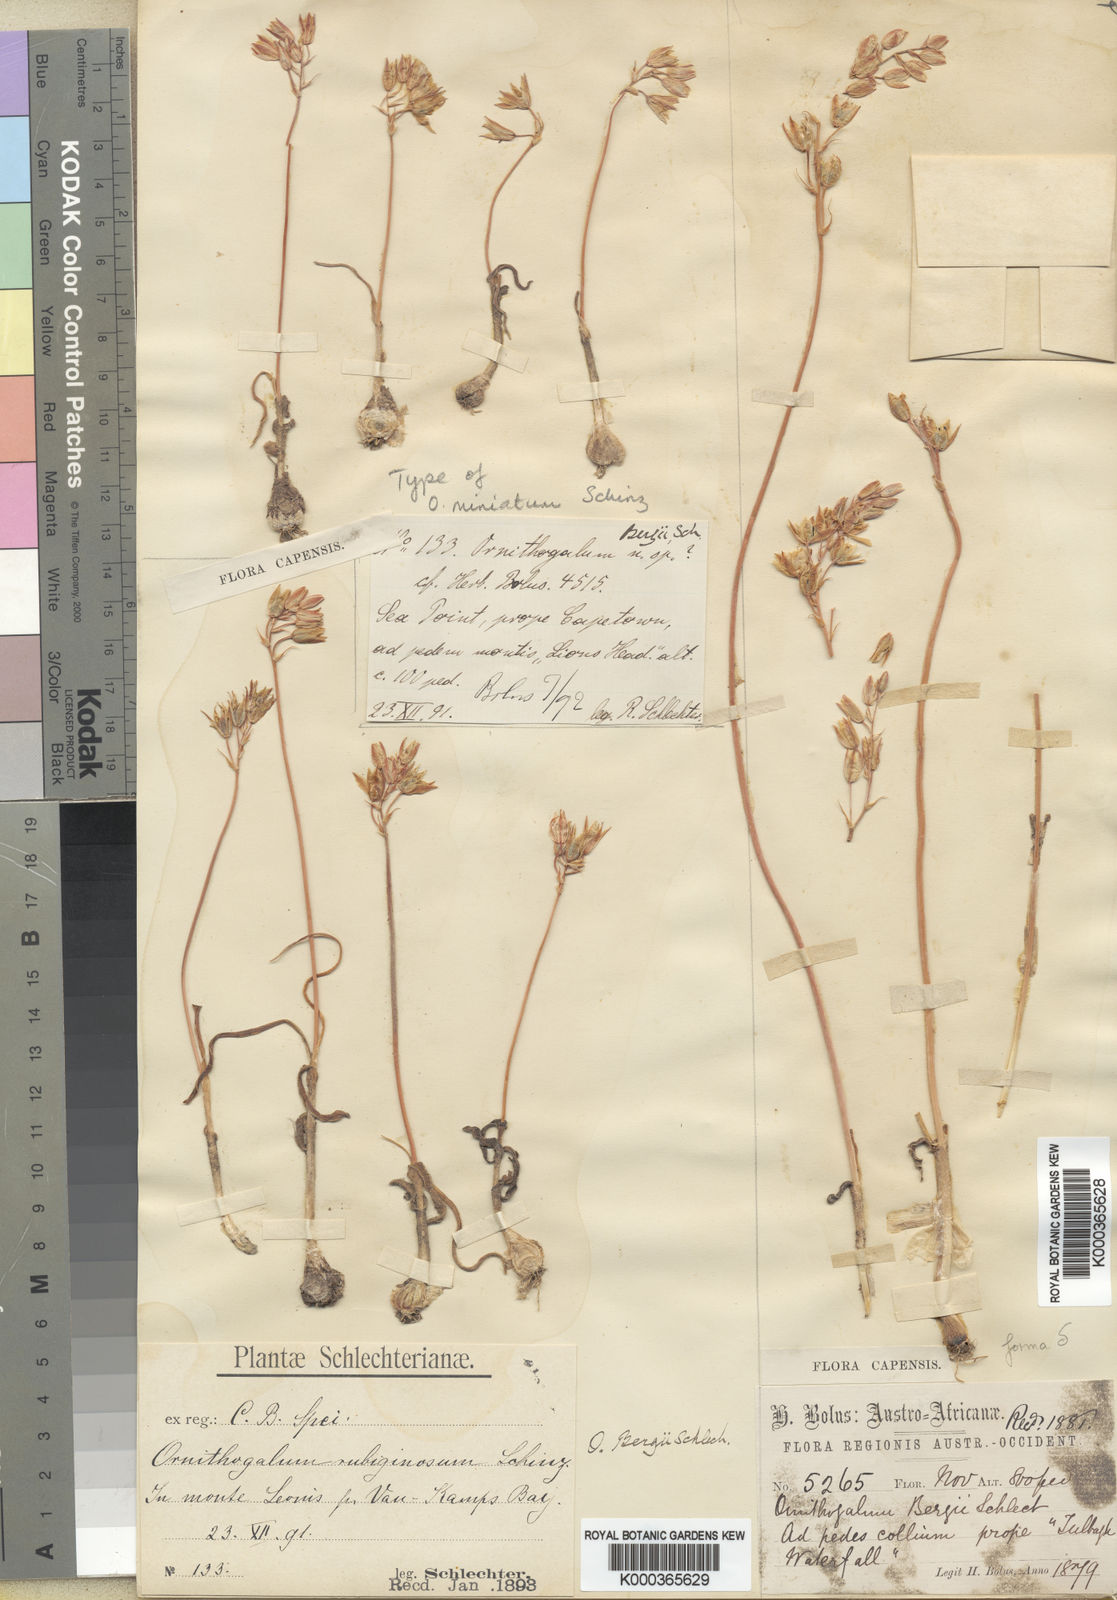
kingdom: Plantae
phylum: Tracheophyta
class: Liliopsida
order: Asparagales
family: Asparagaceae
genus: Ornithogalum
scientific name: Ornithogalum hispidum
